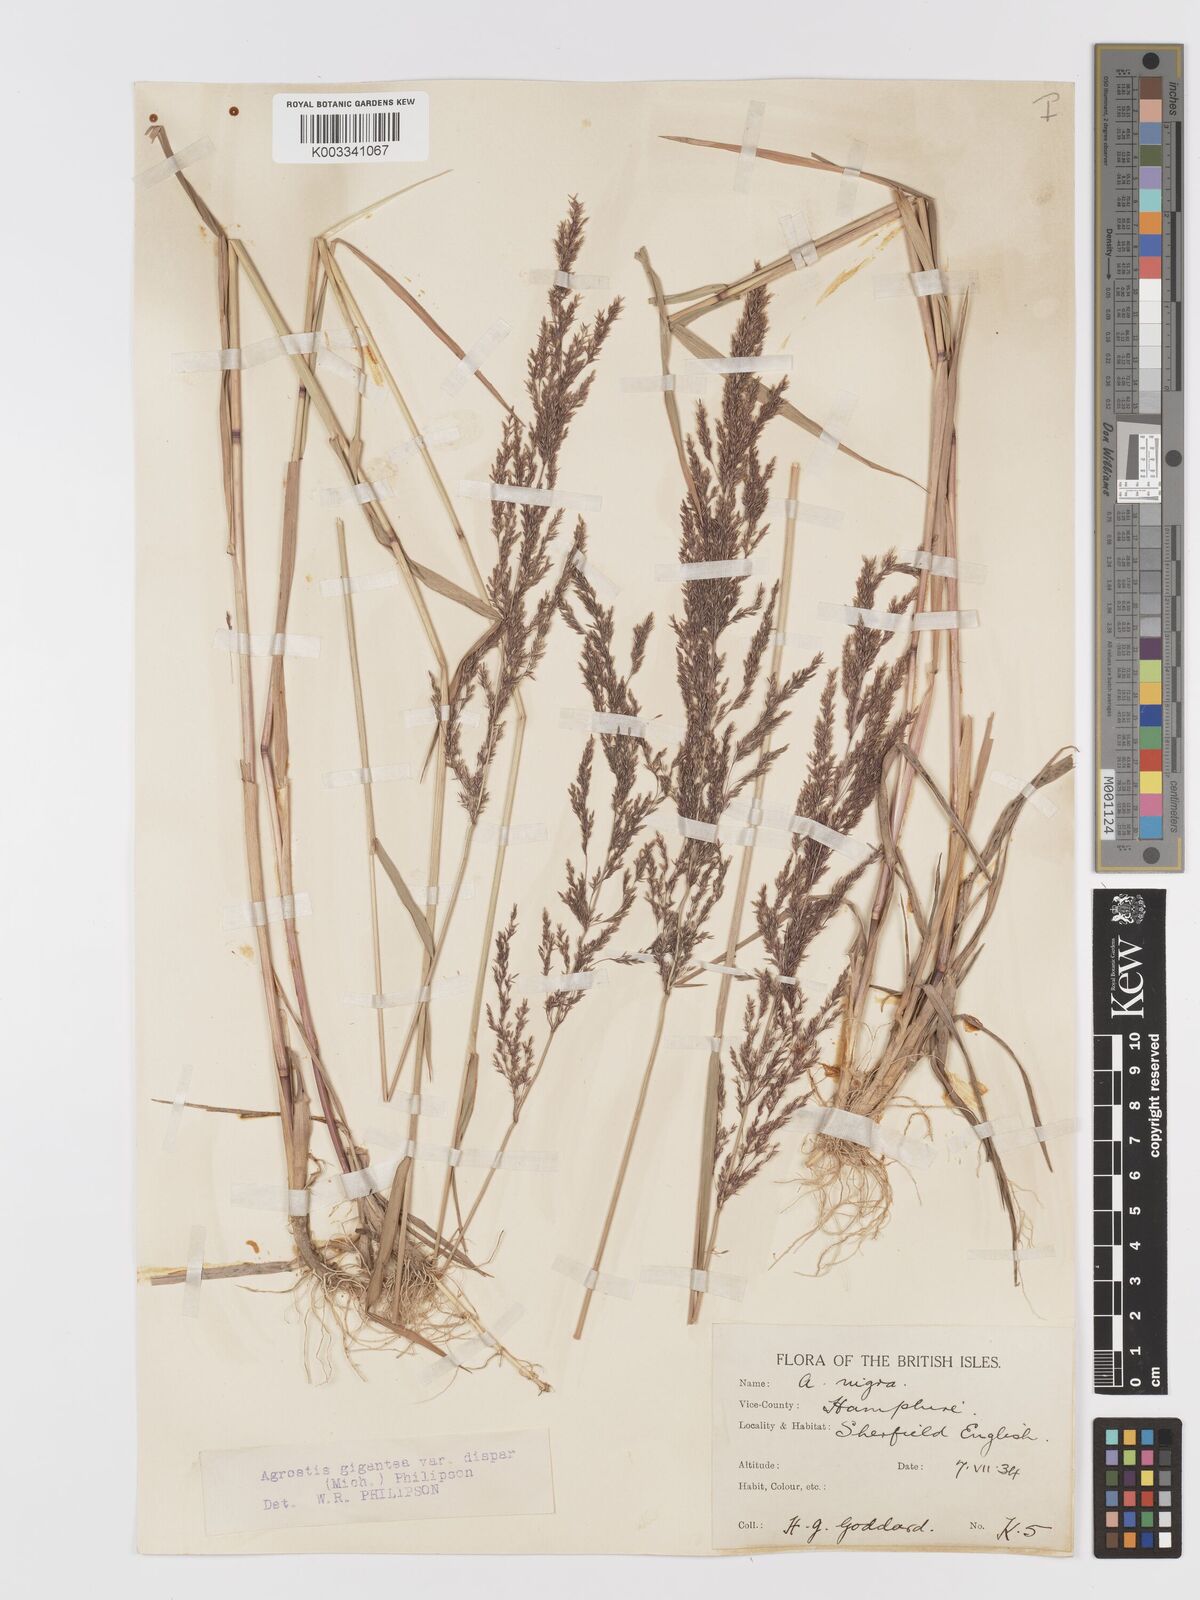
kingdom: Plantae
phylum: Tracheophyta
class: Liliopsida
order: Poales
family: Poaceae
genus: Agrostis
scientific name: Agrostis gigantea
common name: Black bent
